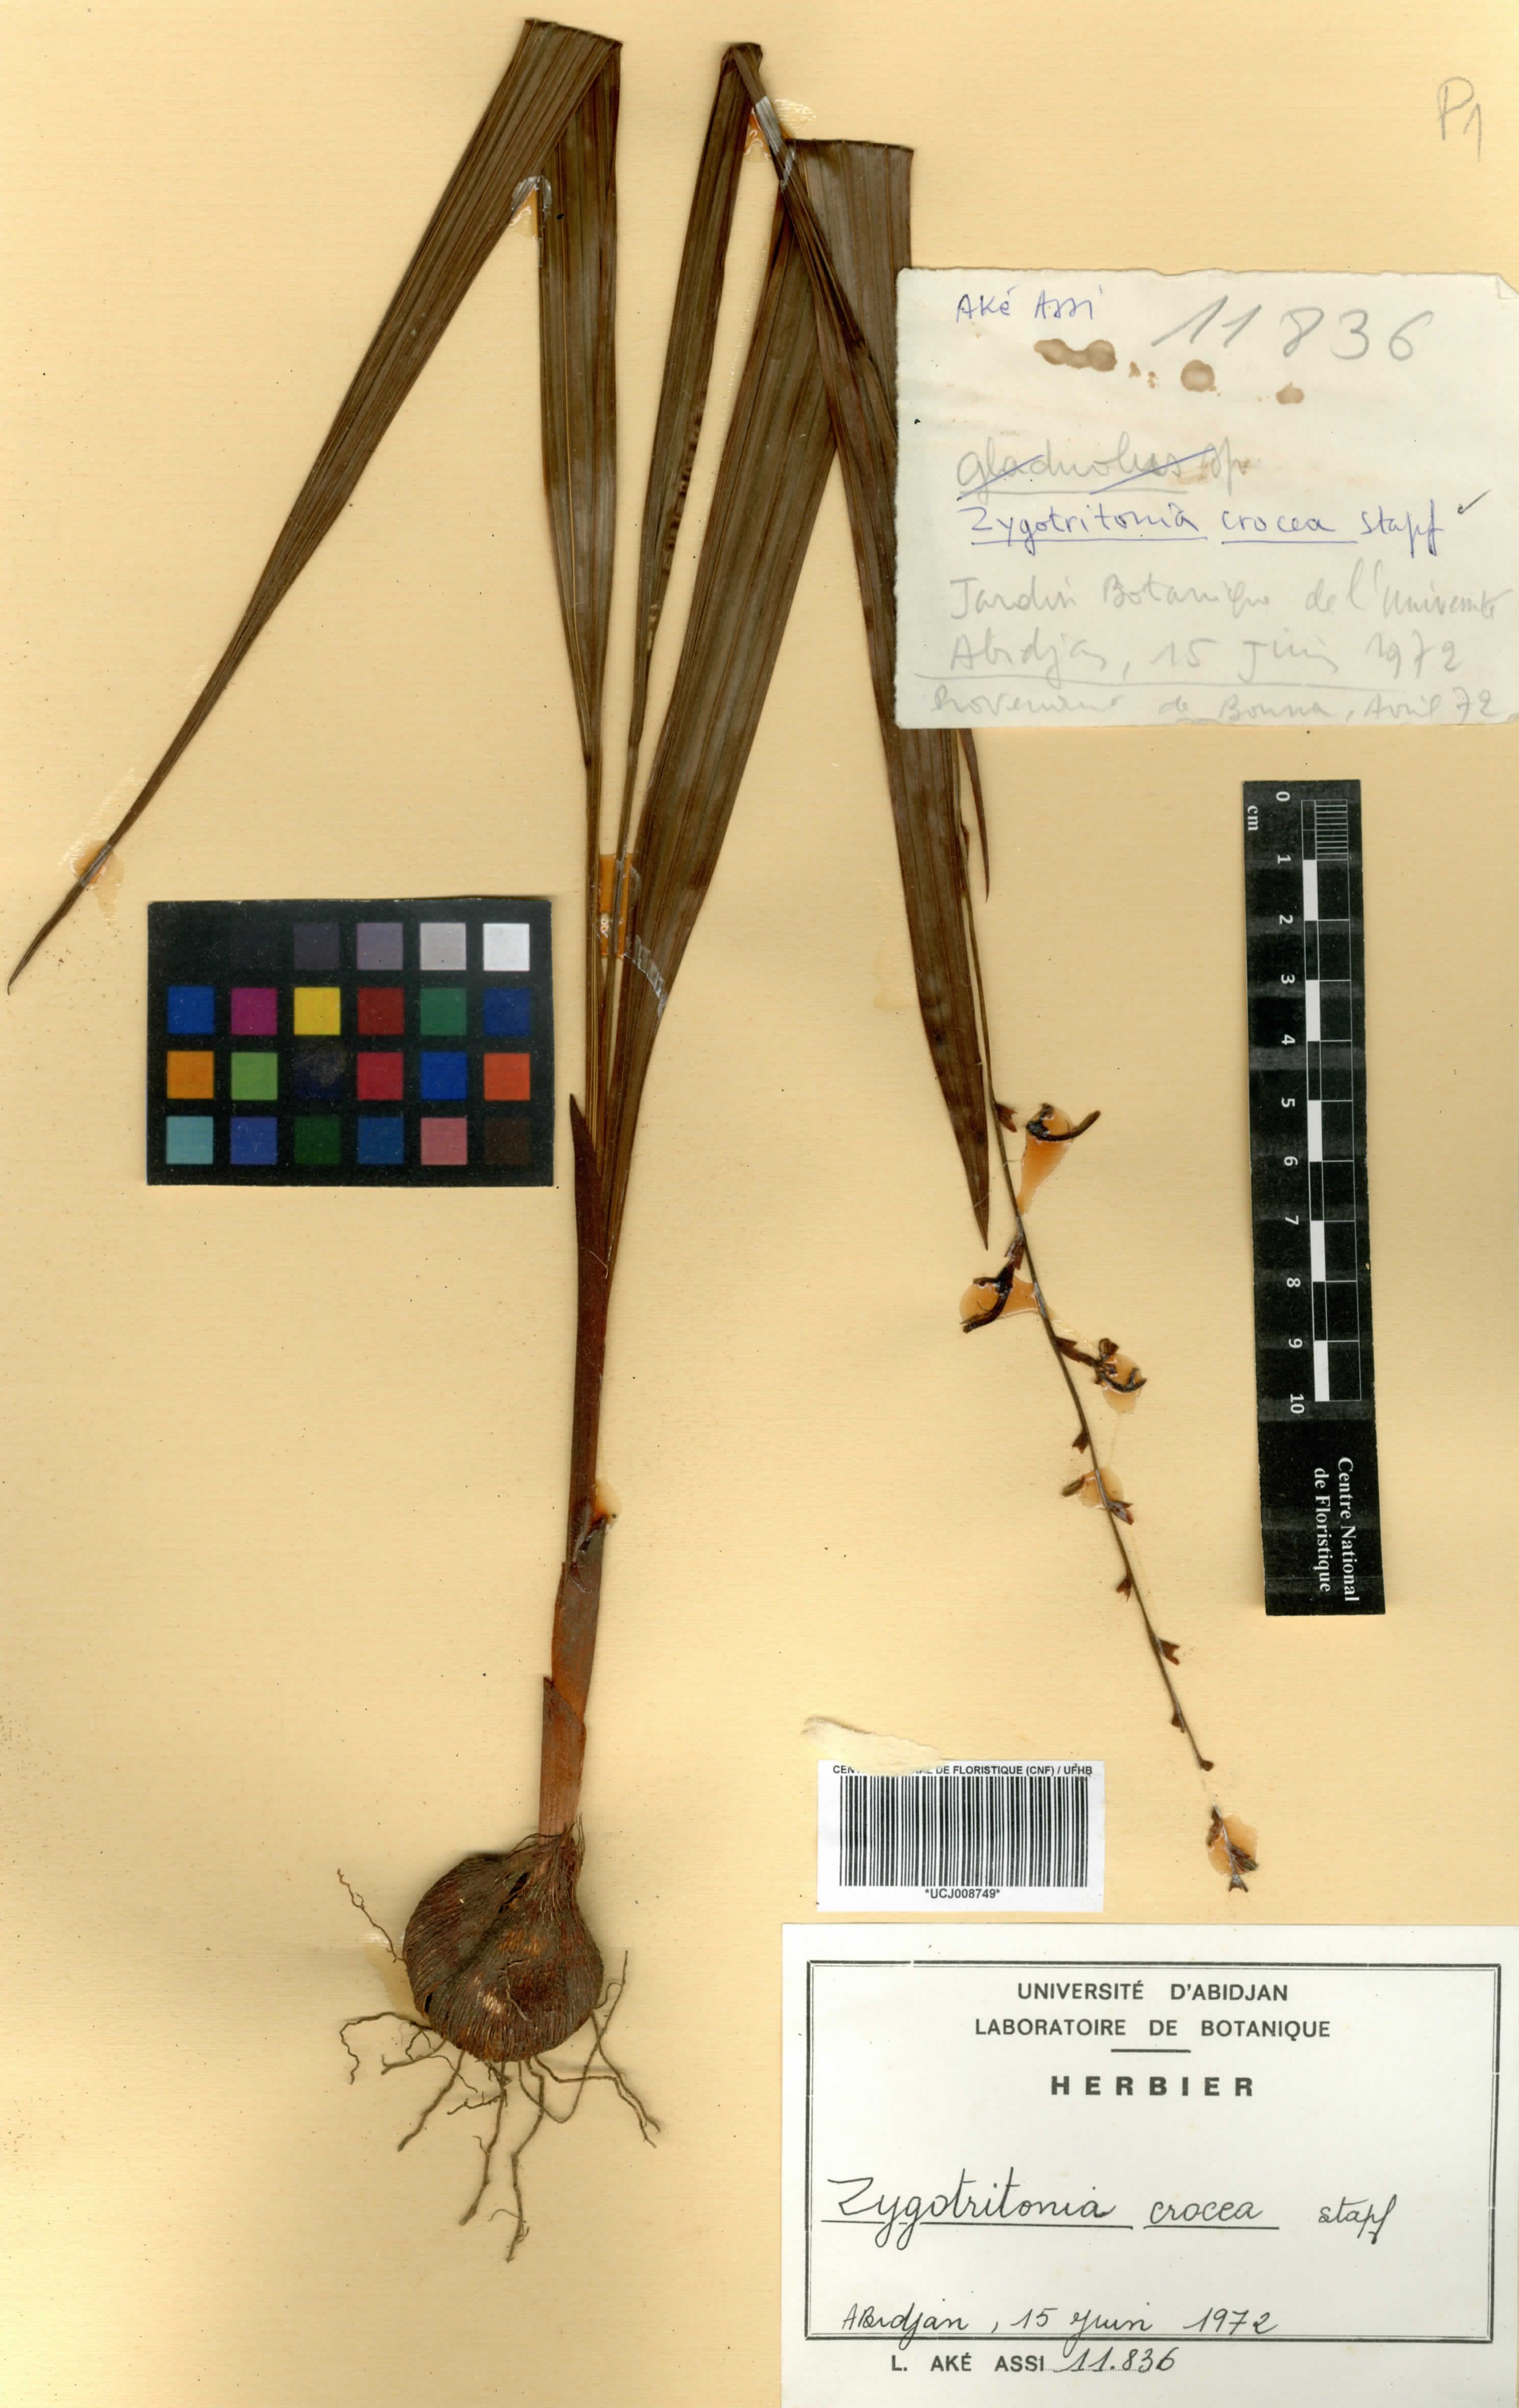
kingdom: Plantae
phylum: Tracheophyta
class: Liliopsida
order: Asparagales
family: Iridaceae
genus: Zygotritonia
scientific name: Zygotritonia bongensis
